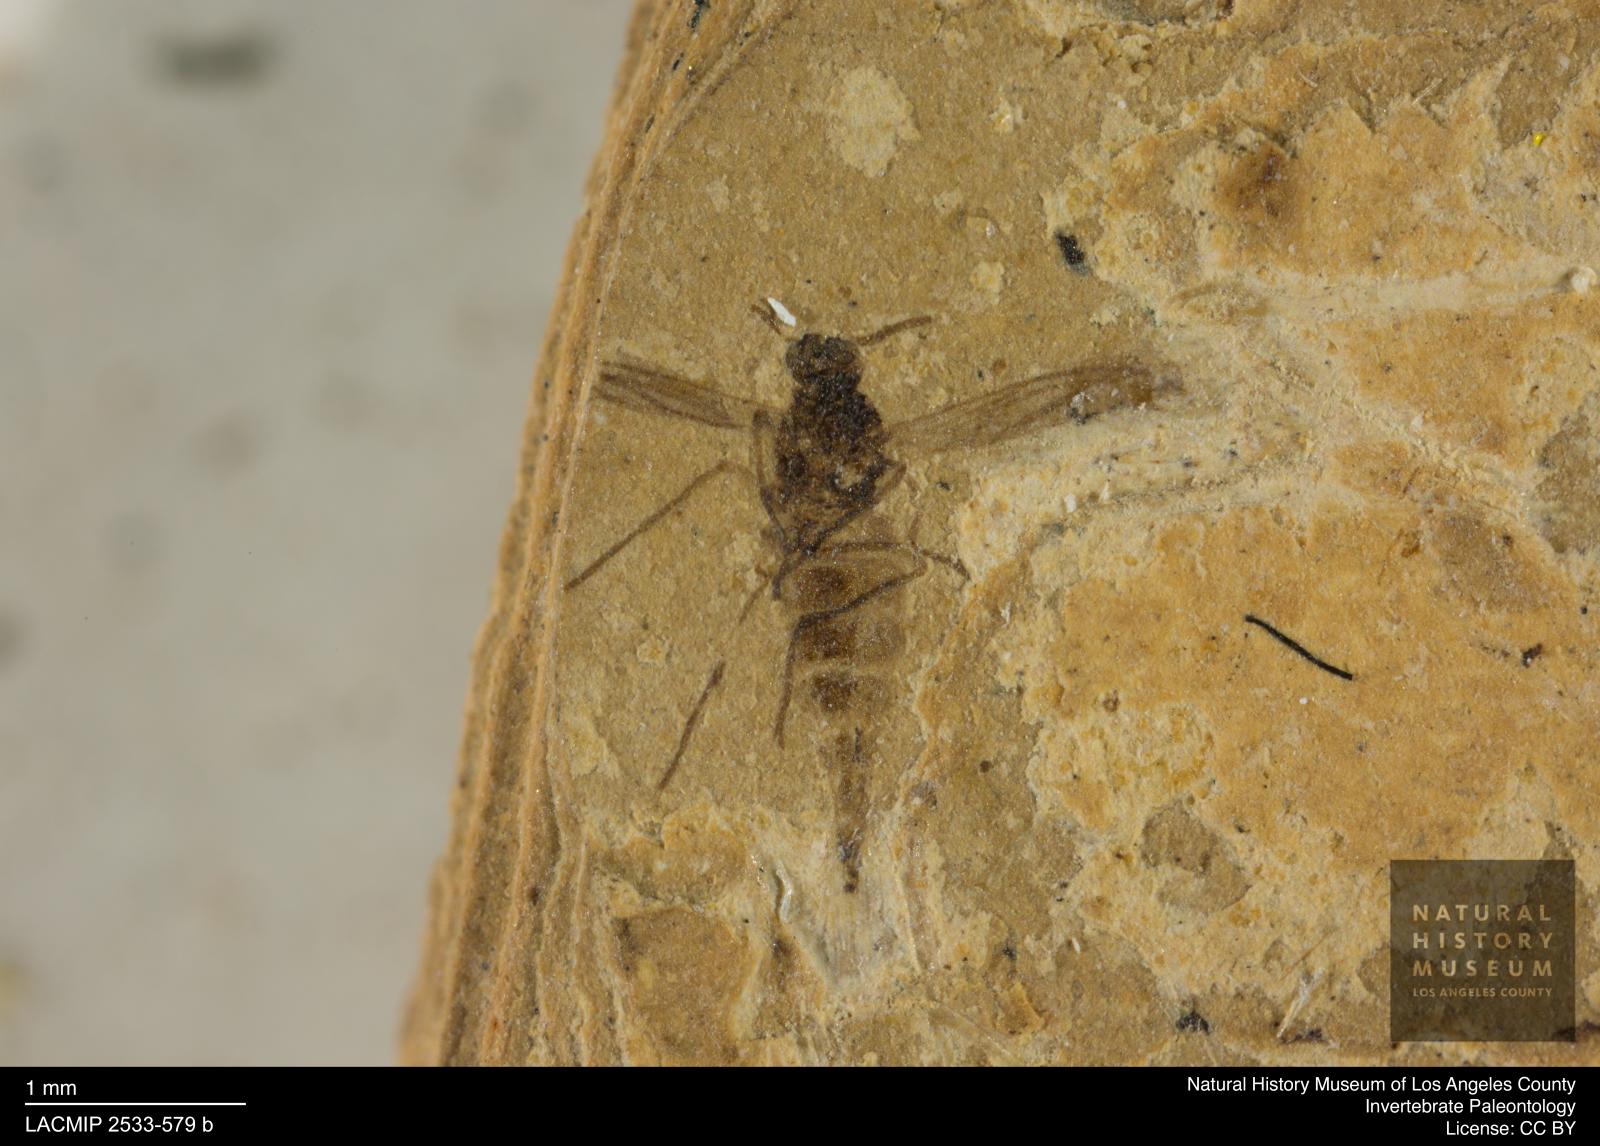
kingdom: Animalia
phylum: Arthropoda
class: Insecta
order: Diptera
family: Sciaridae
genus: Sciara
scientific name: Sciara gracilenta
